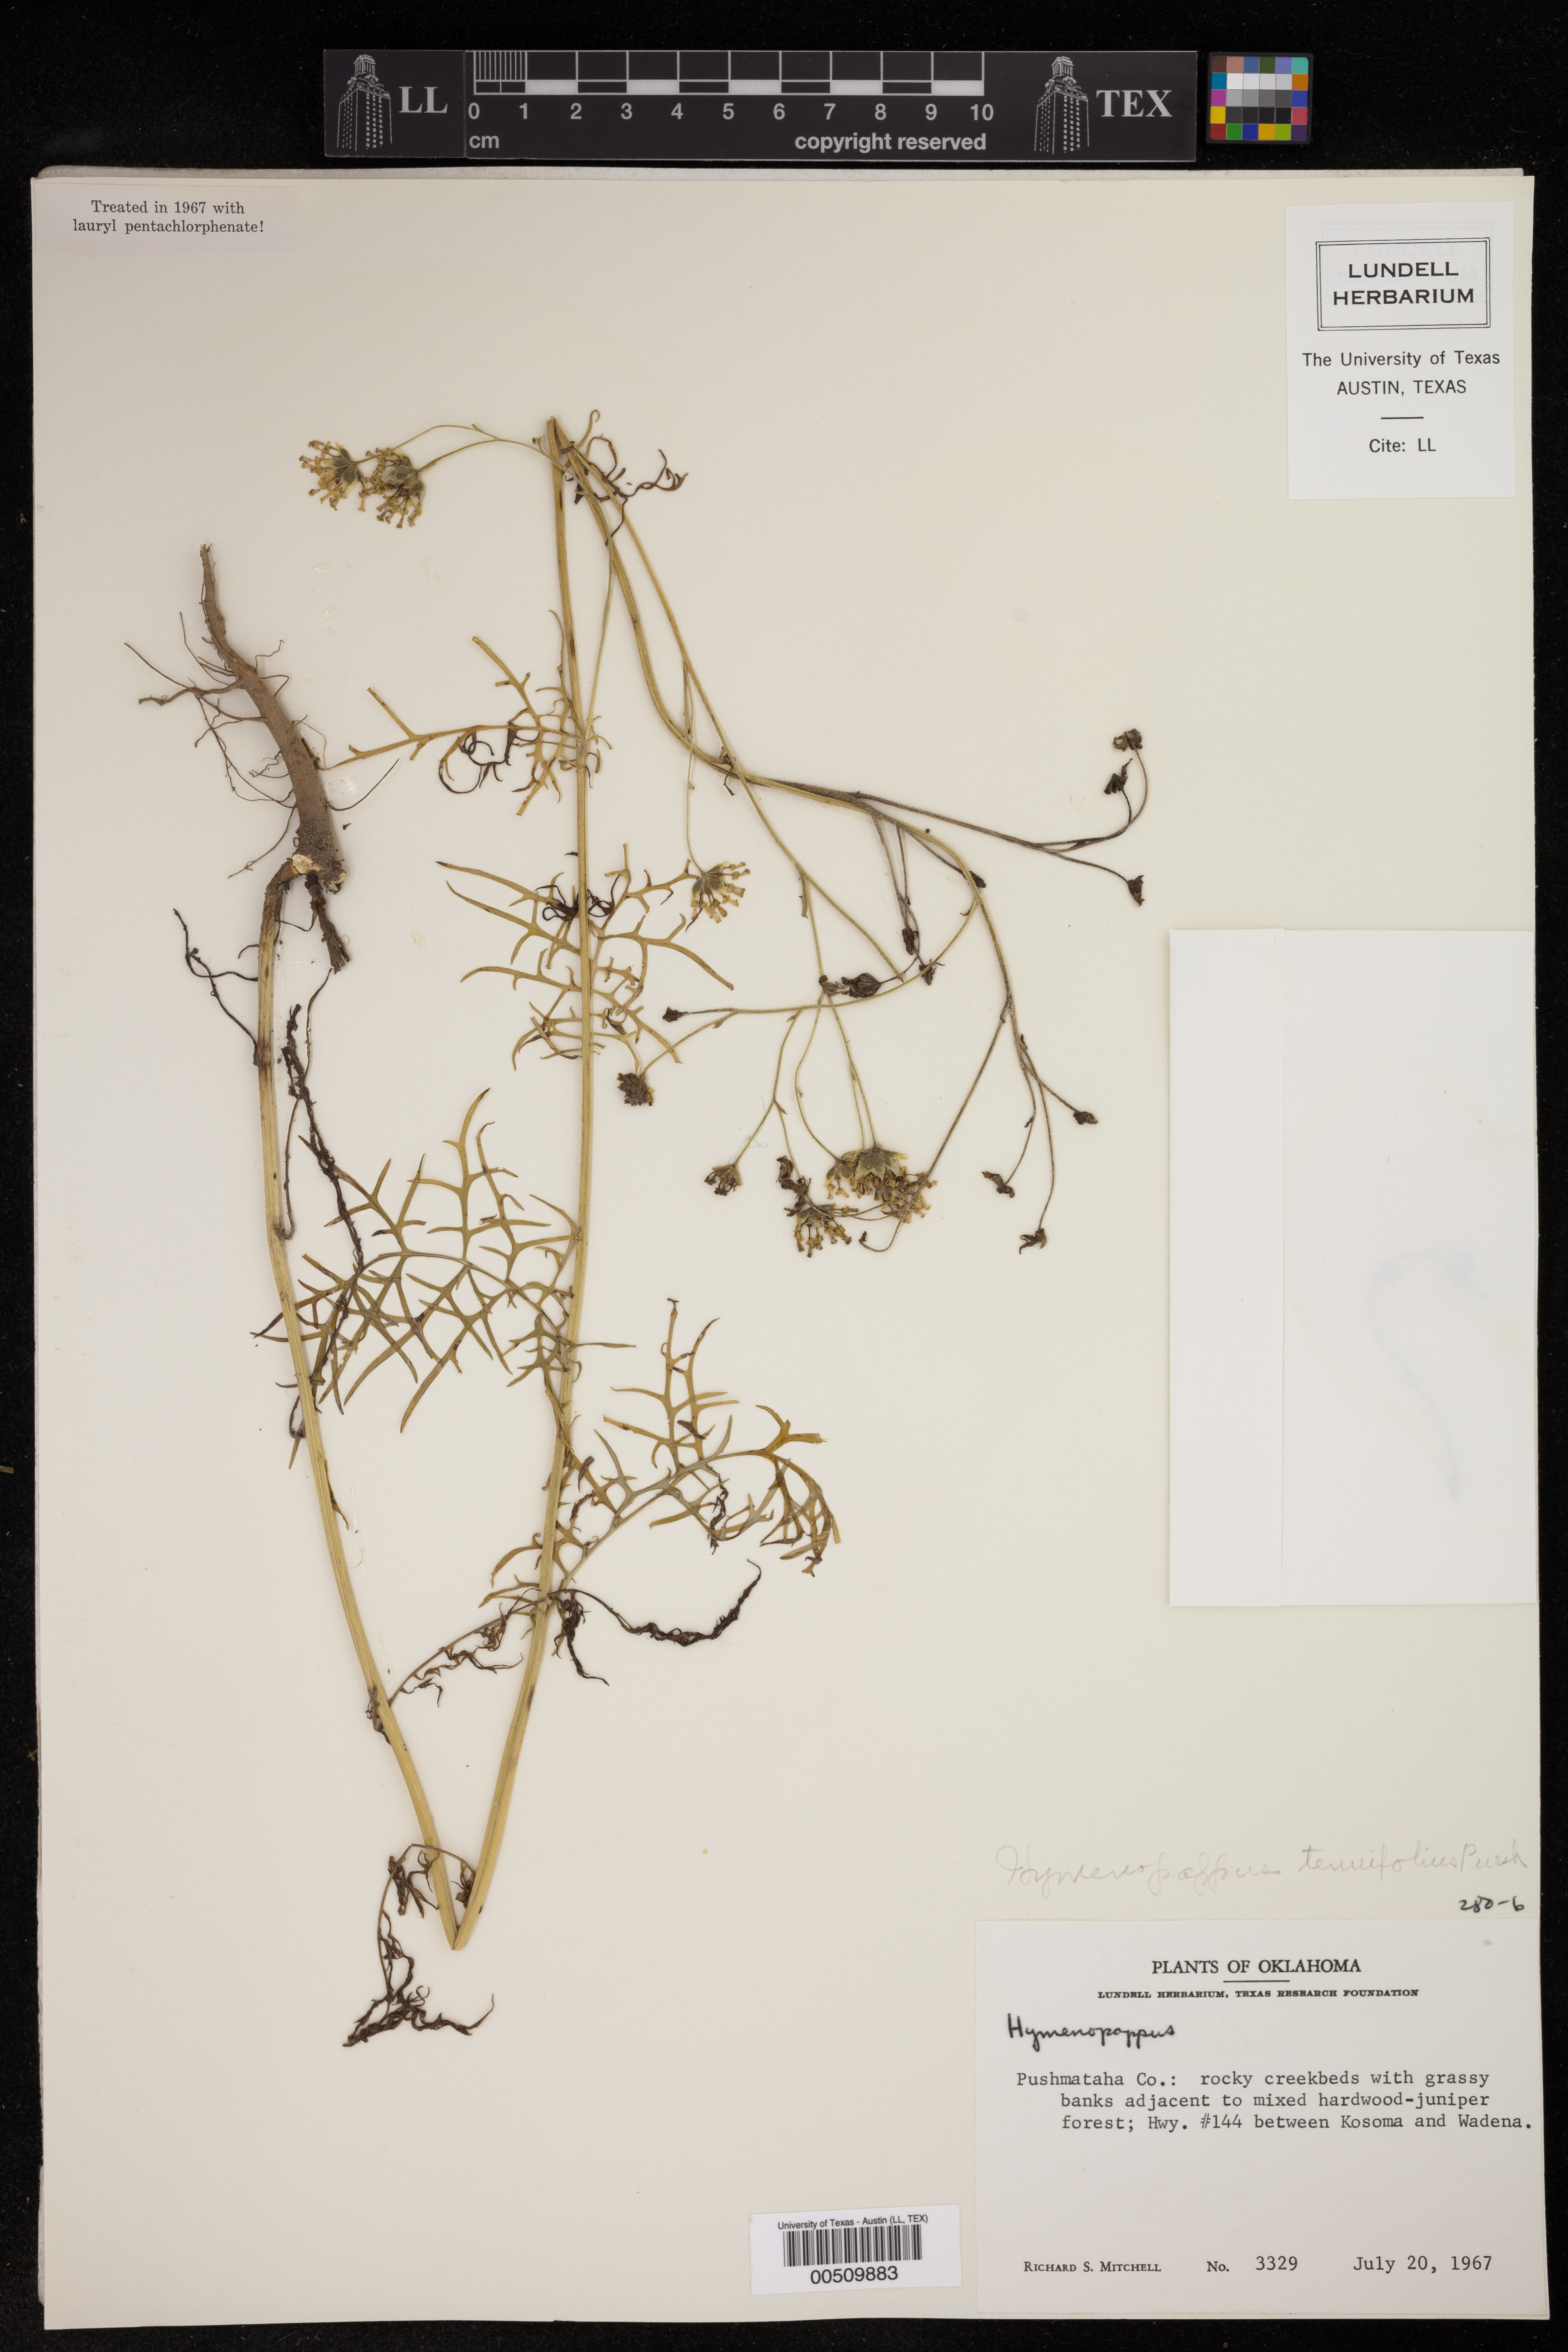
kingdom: Plantae
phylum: Tracheophyta
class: Magnoliopsida
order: Asterales
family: Asteraceae
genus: Hymenopappus
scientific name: Hymenopappus tenuifolius
